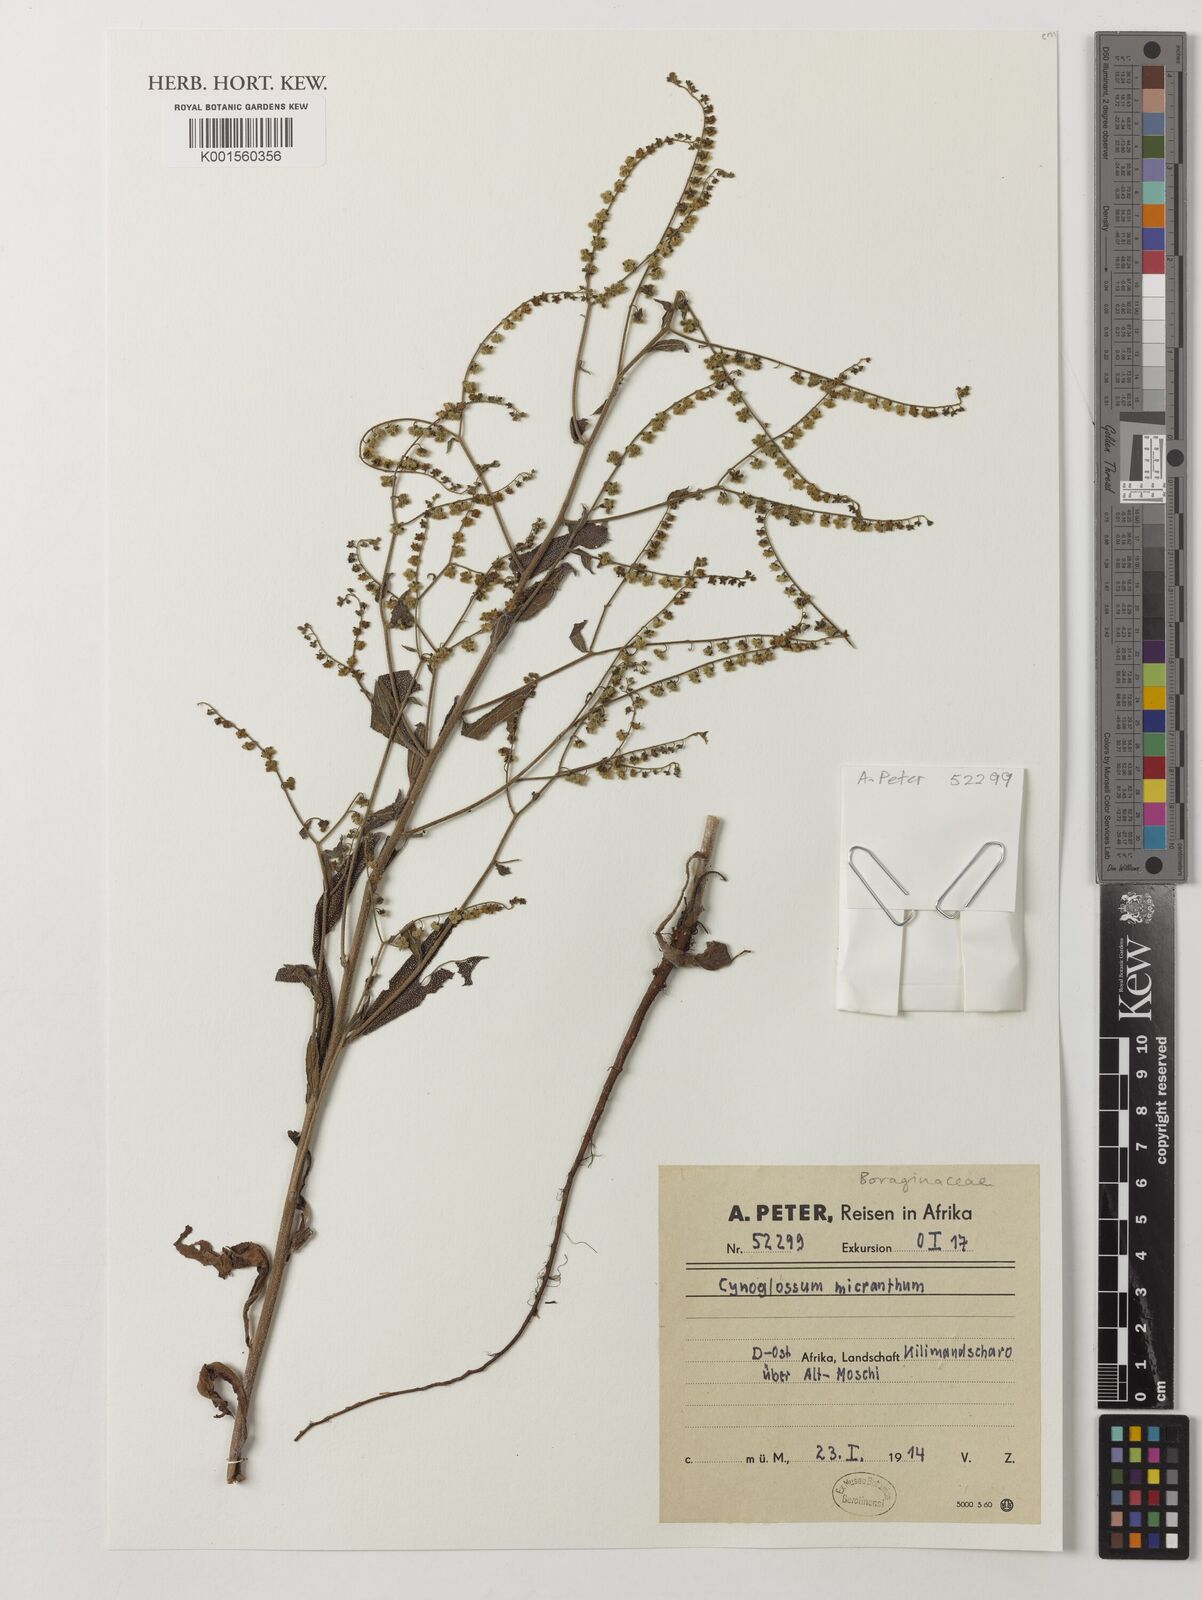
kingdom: Plantae
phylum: Tracheophyta
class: Magnoliopsida
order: Boraginales
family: Boraginaceae
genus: Cynoglossum
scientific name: Cynoglossum
